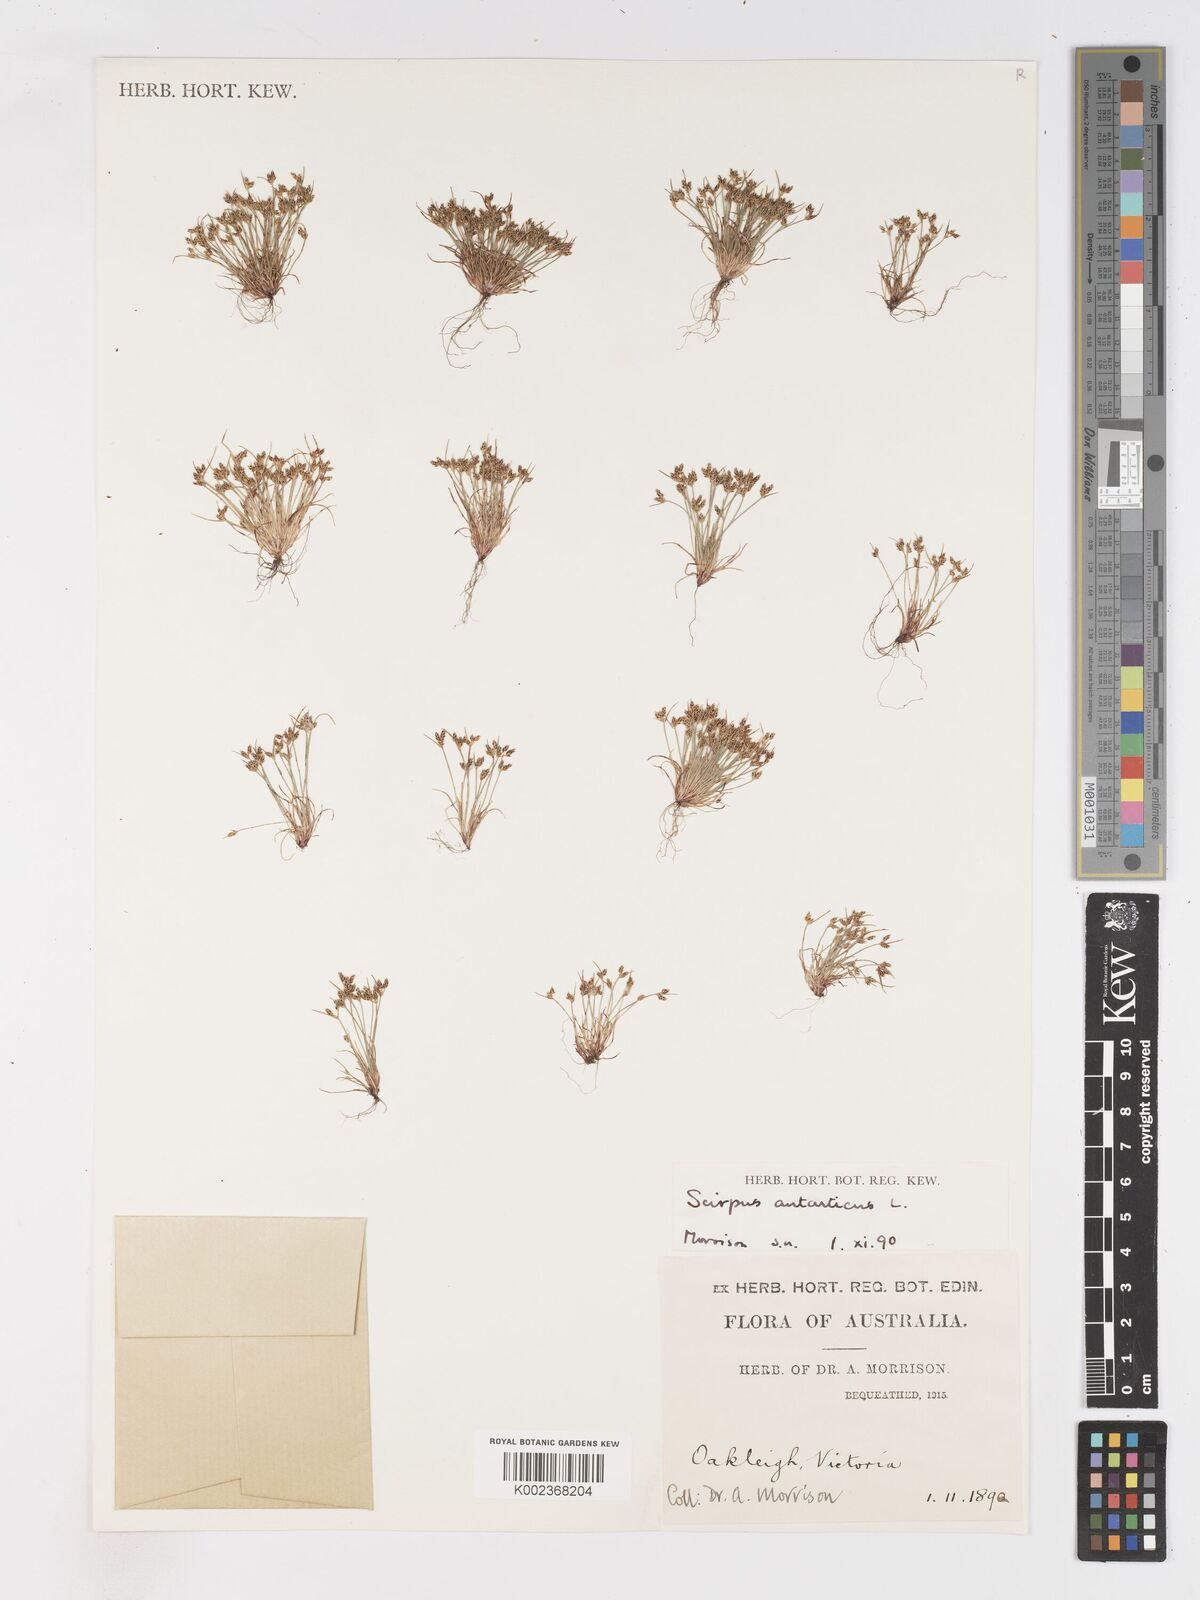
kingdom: Plantae
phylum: Tracheophyta
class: Liliopsida
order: Poales
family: Cyperaceae
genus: Isolepis
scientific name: Isolepis antarctica
